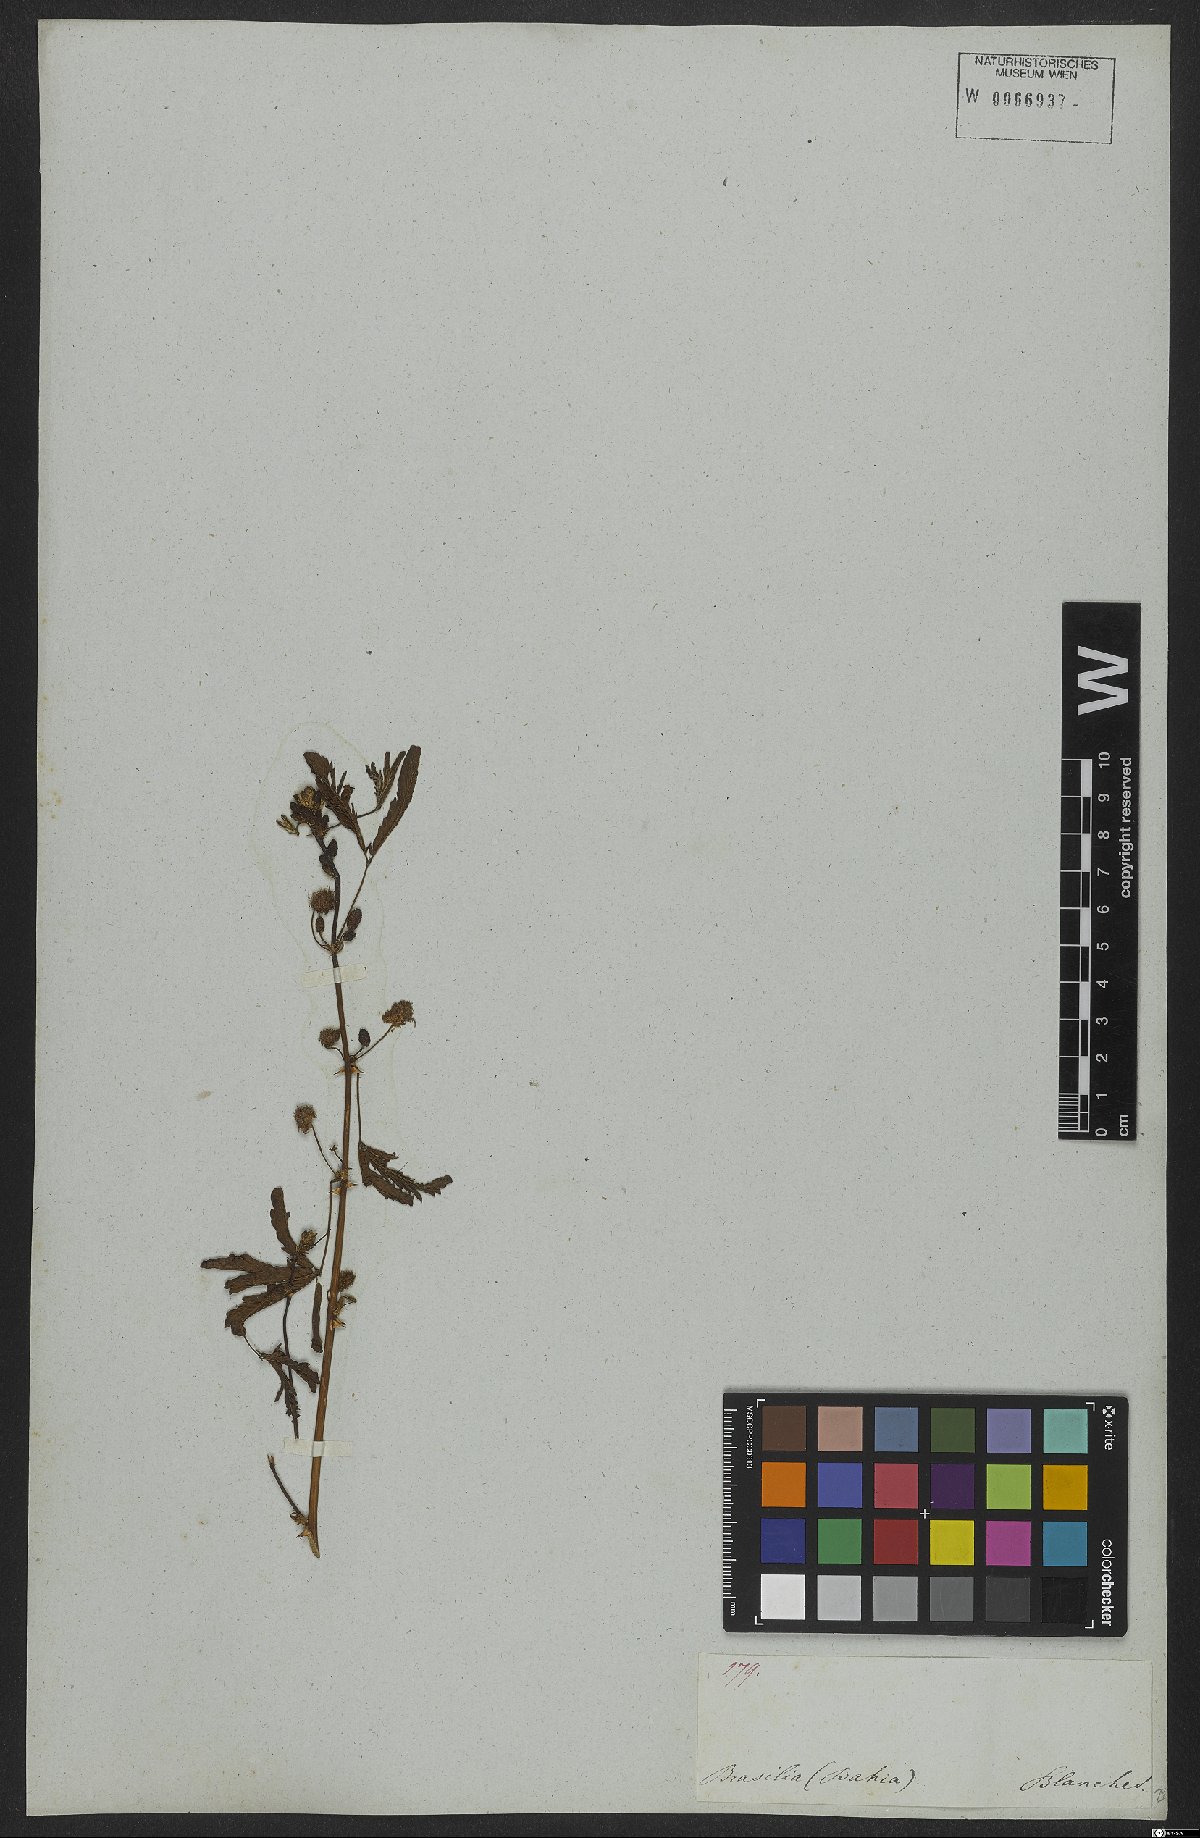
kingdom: Plantae
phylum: Tracheophyta
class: Magnoliopsida
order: Fabales
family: Fabaceae
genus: Mimosa
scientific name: Mimosa pudica
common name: Sensitive plant
